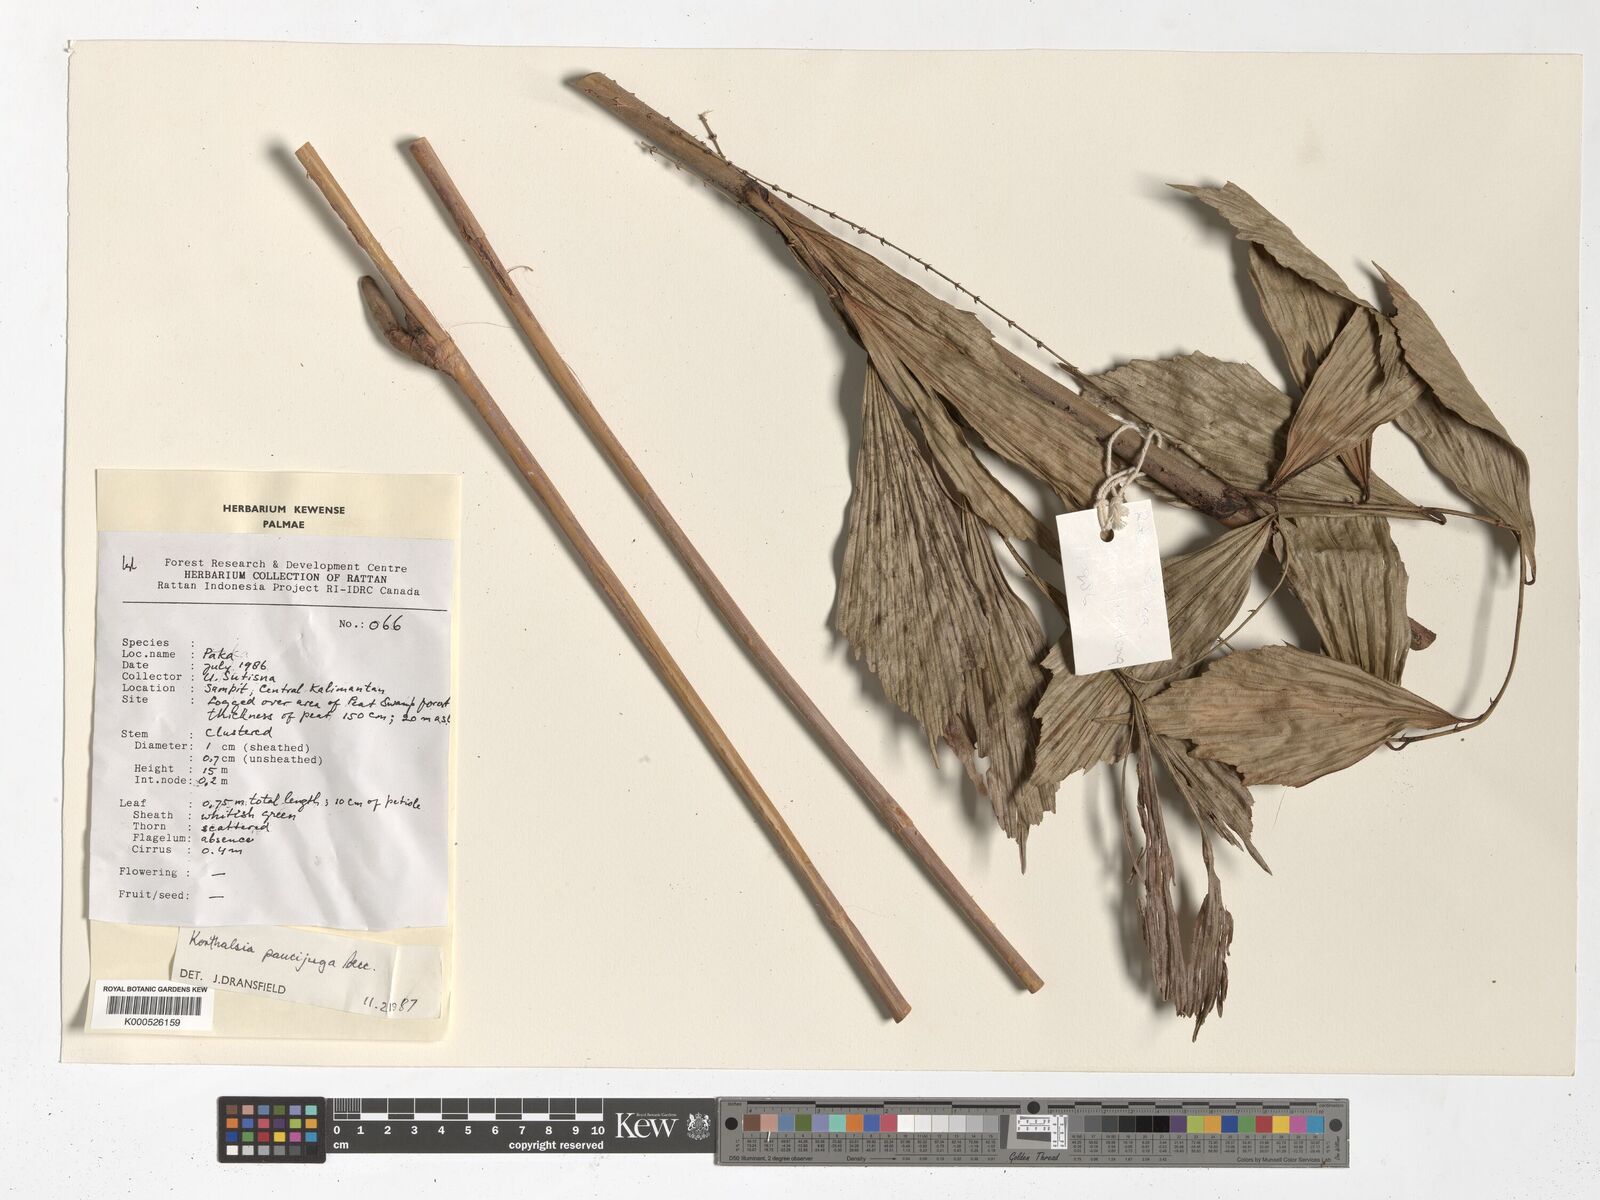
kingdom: Plantae
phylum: Tracheophyta
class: Liliopsida
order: Arecales
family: Arecaceae
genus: Korthalsia
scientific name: Korthalsia paucijuga
